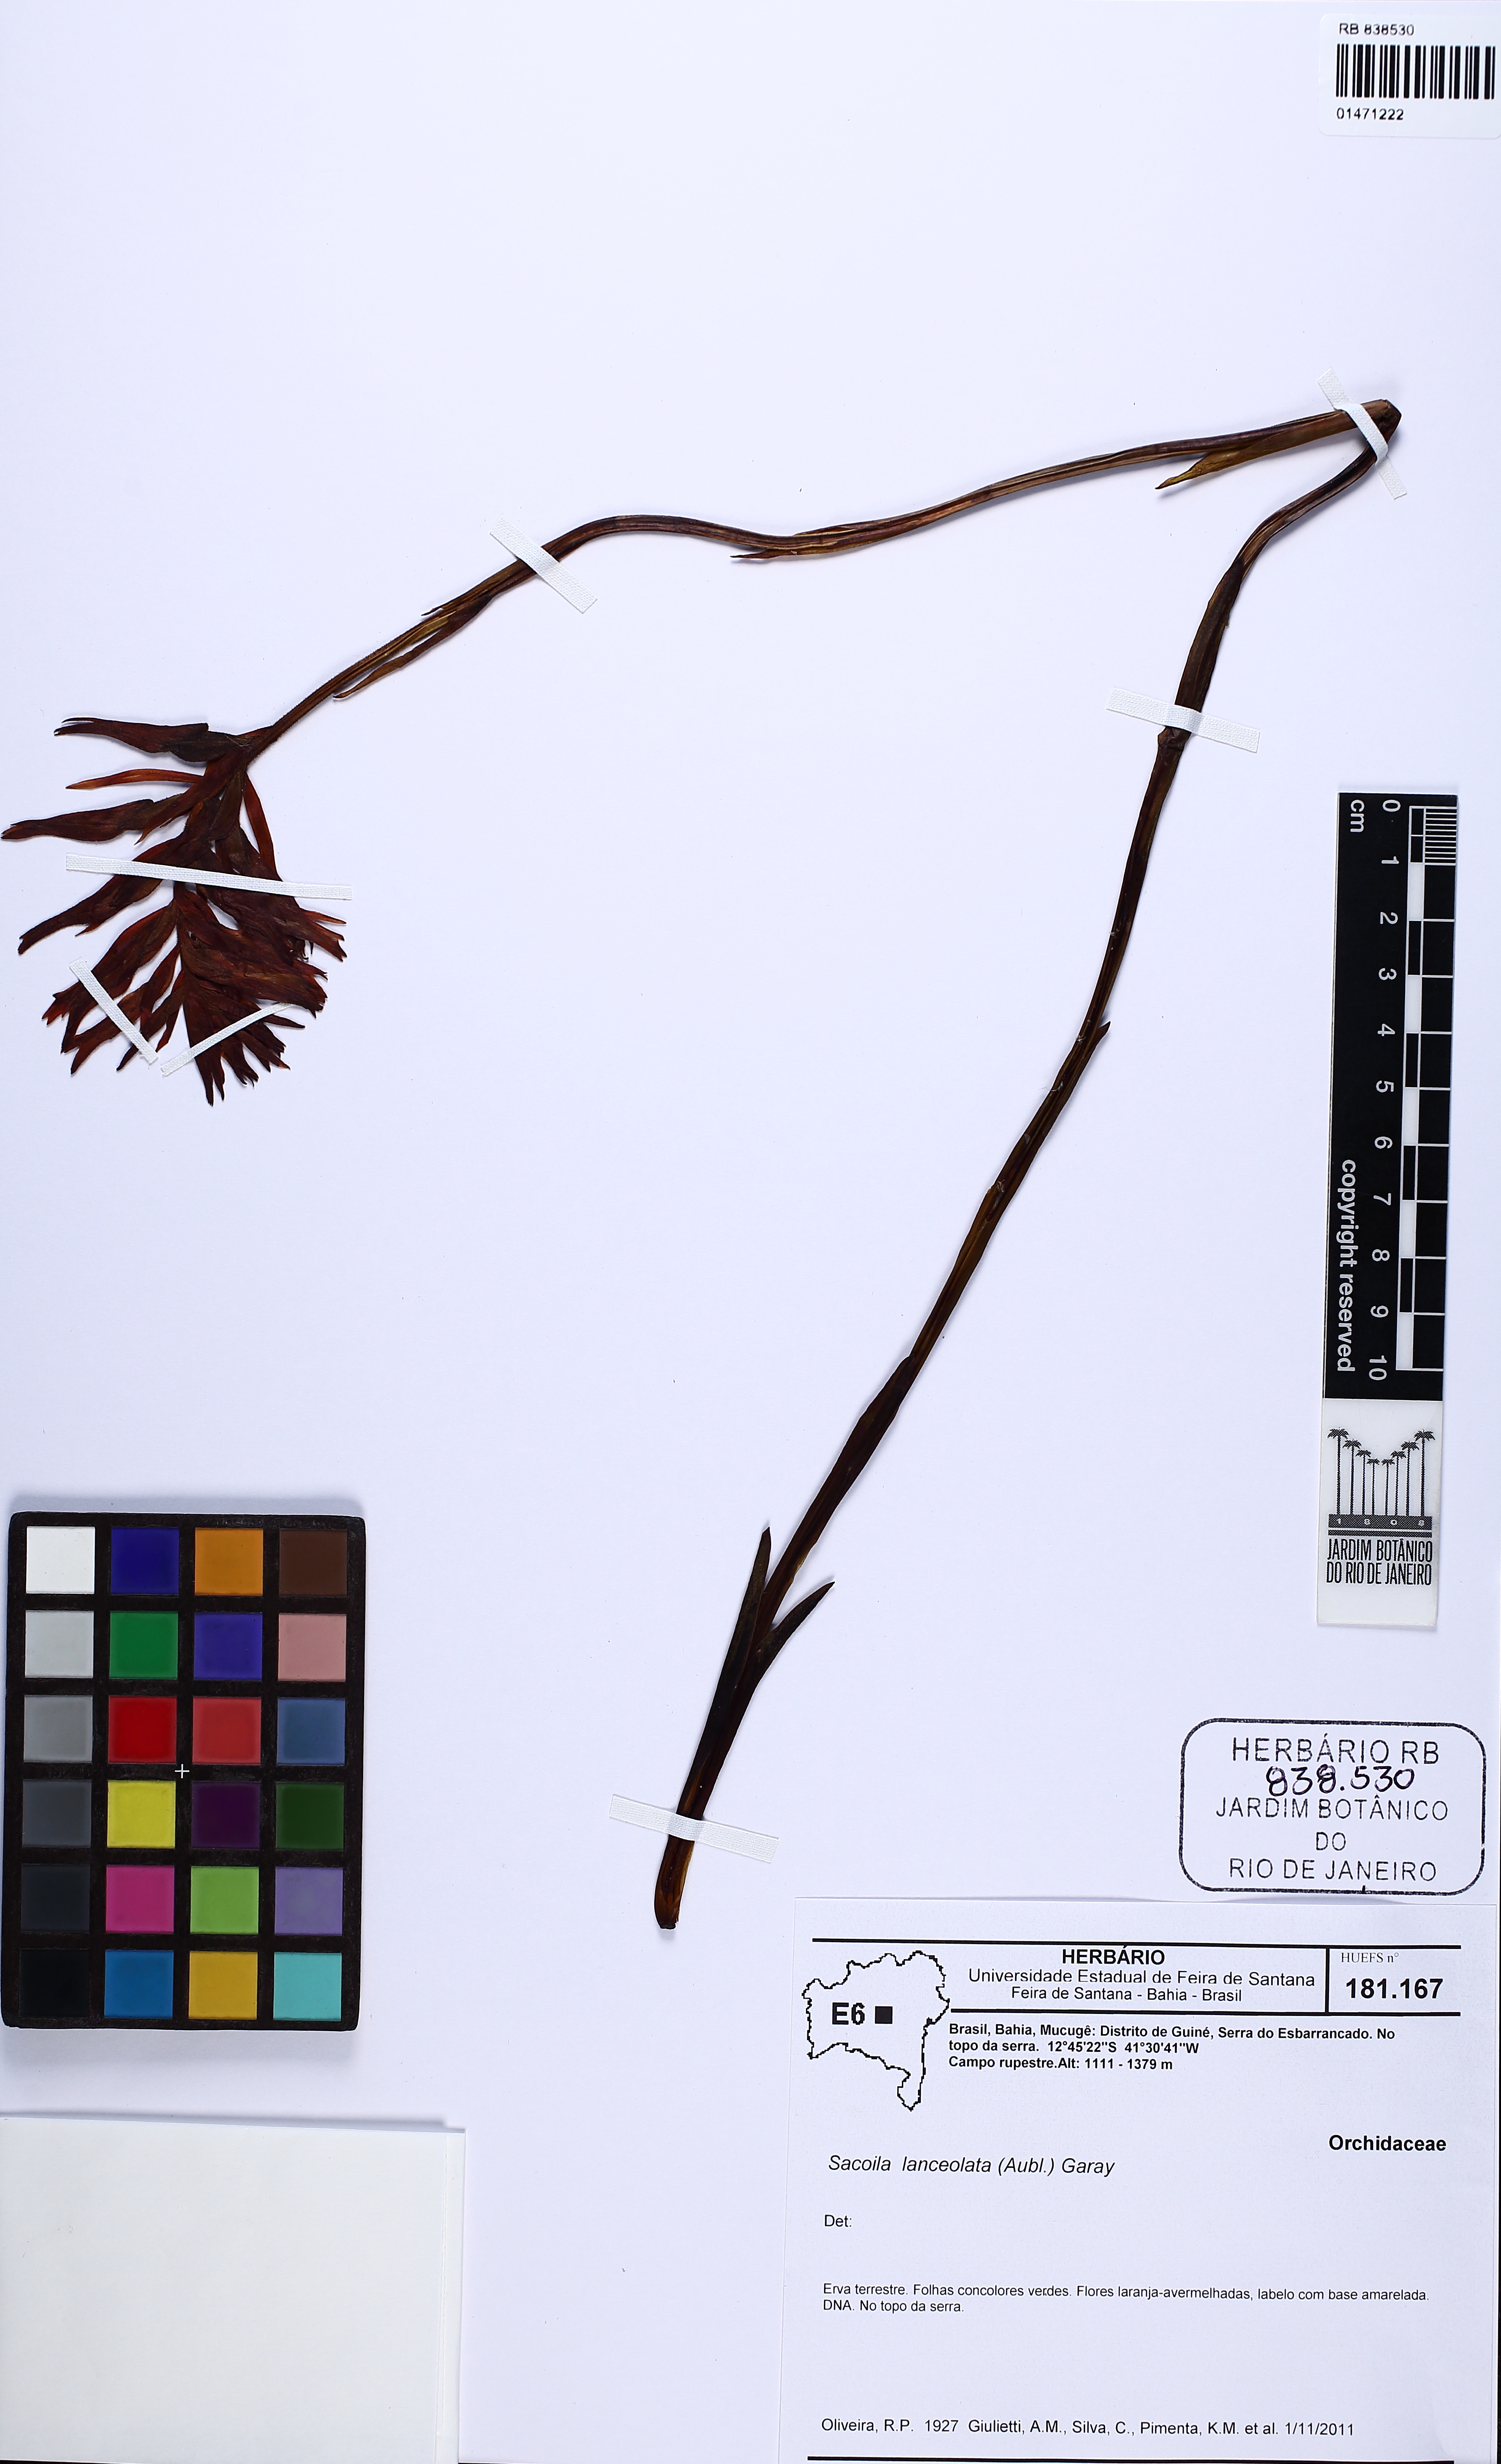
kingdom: Plantae
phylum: Tracheophyta
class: Liliopsida
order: Asparagales
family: Orchidaceae
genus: Sacoila
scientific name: Sacoila lanceolata
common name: Leafless beaked ladiestresses
